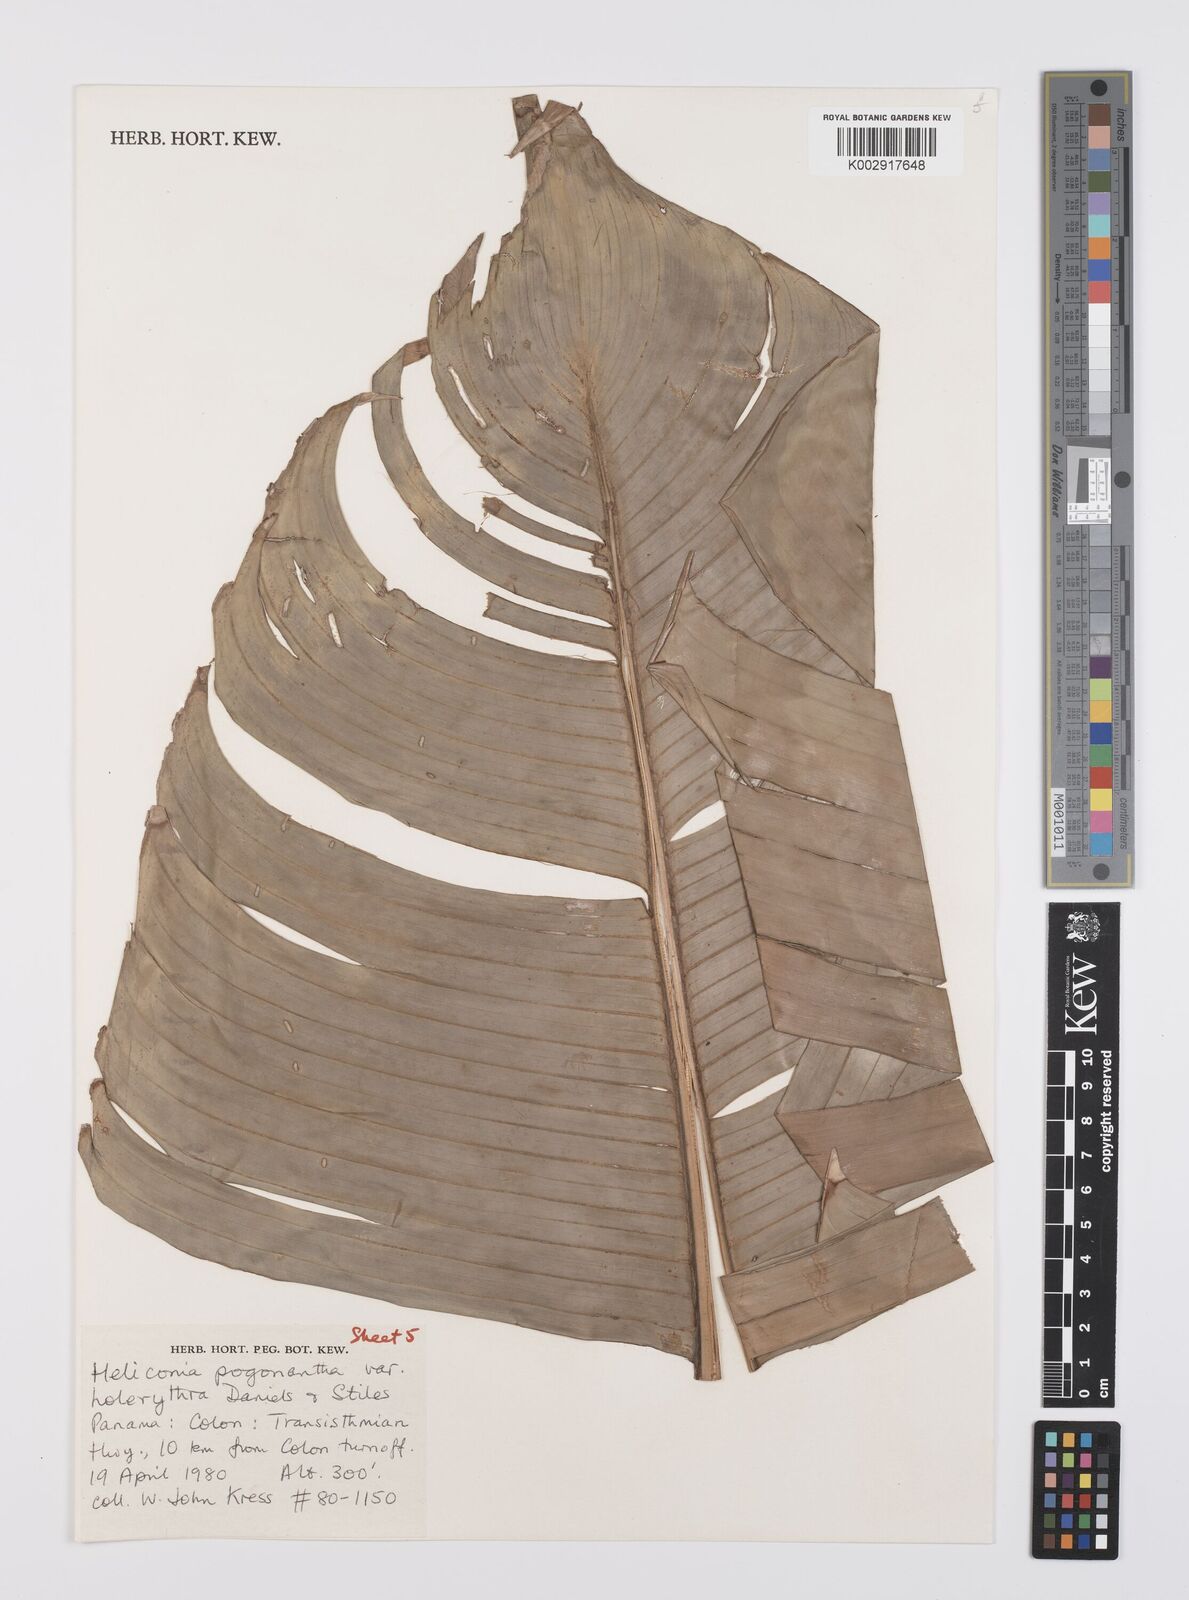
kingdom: Plantae
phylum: Tracheophyta
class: Liliopsida
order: Zingiberales
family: Heliconiaceae
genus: Heliconia
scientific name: Heliconia pogonantha
